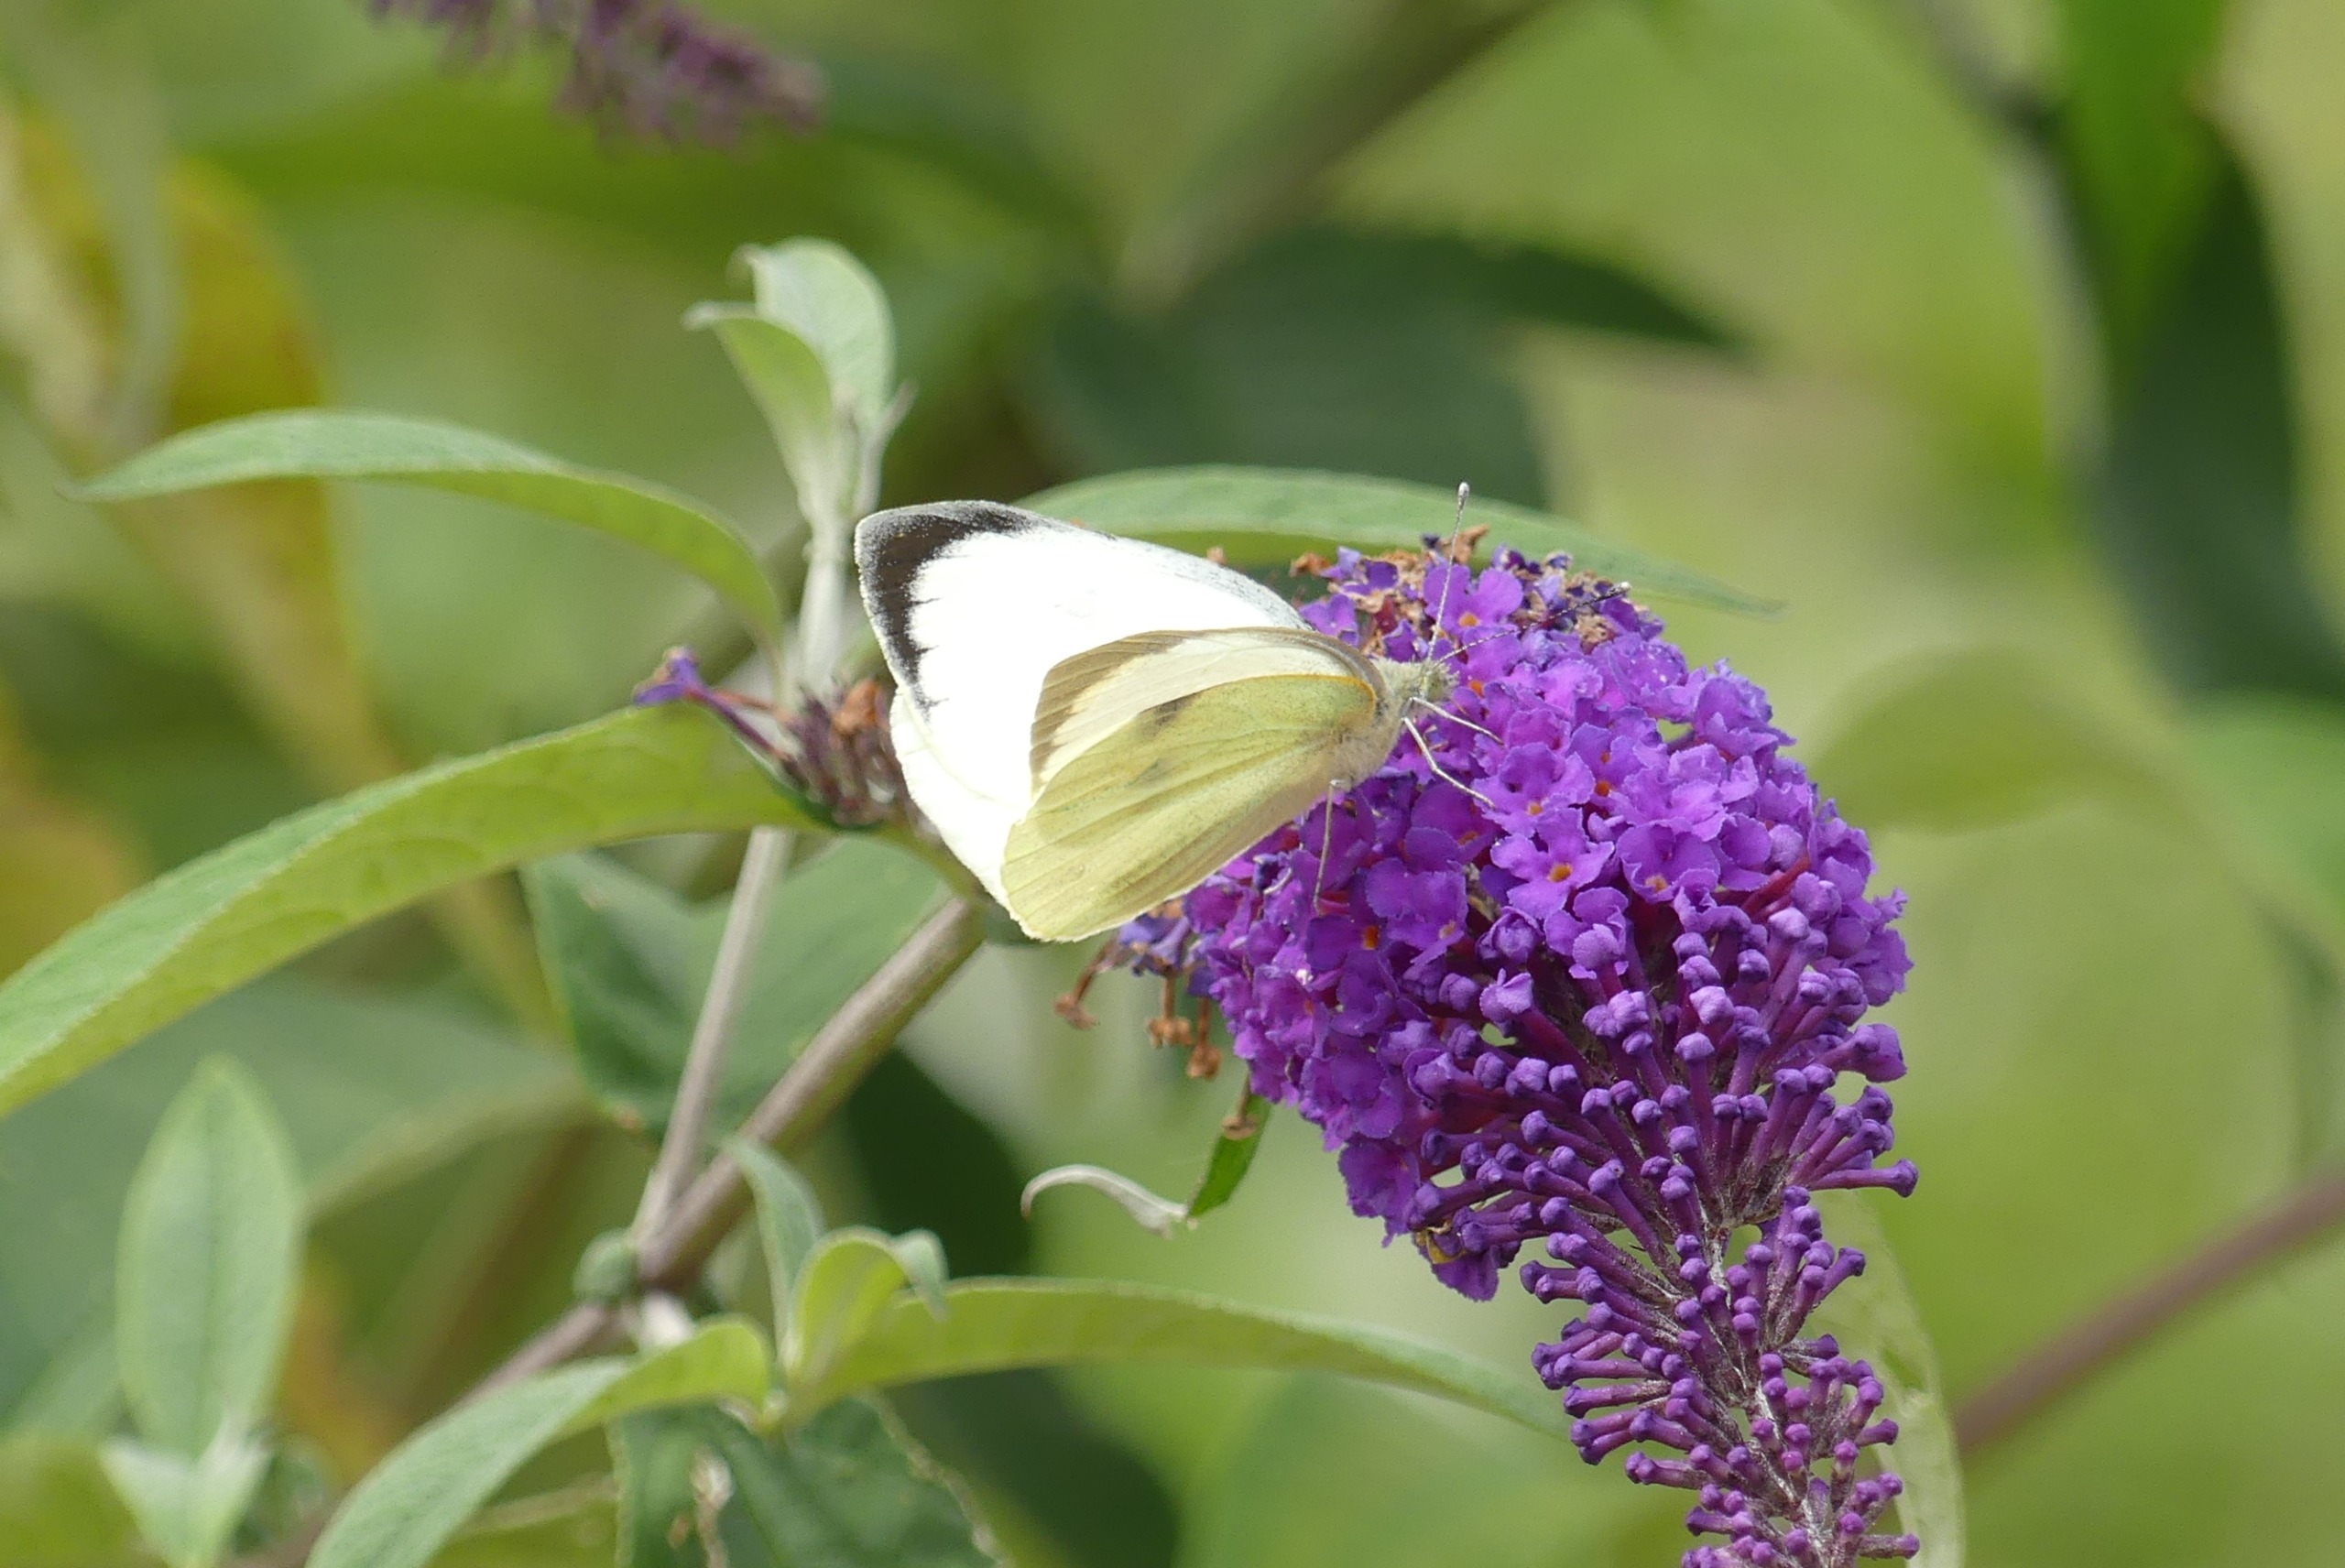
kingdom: Animalia
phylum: Arthropoda
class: Insecta
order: Lepidoptera
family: Pieridae
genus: Pieris
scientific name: Pieris brassicae
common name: Stor kålsommerfugl
